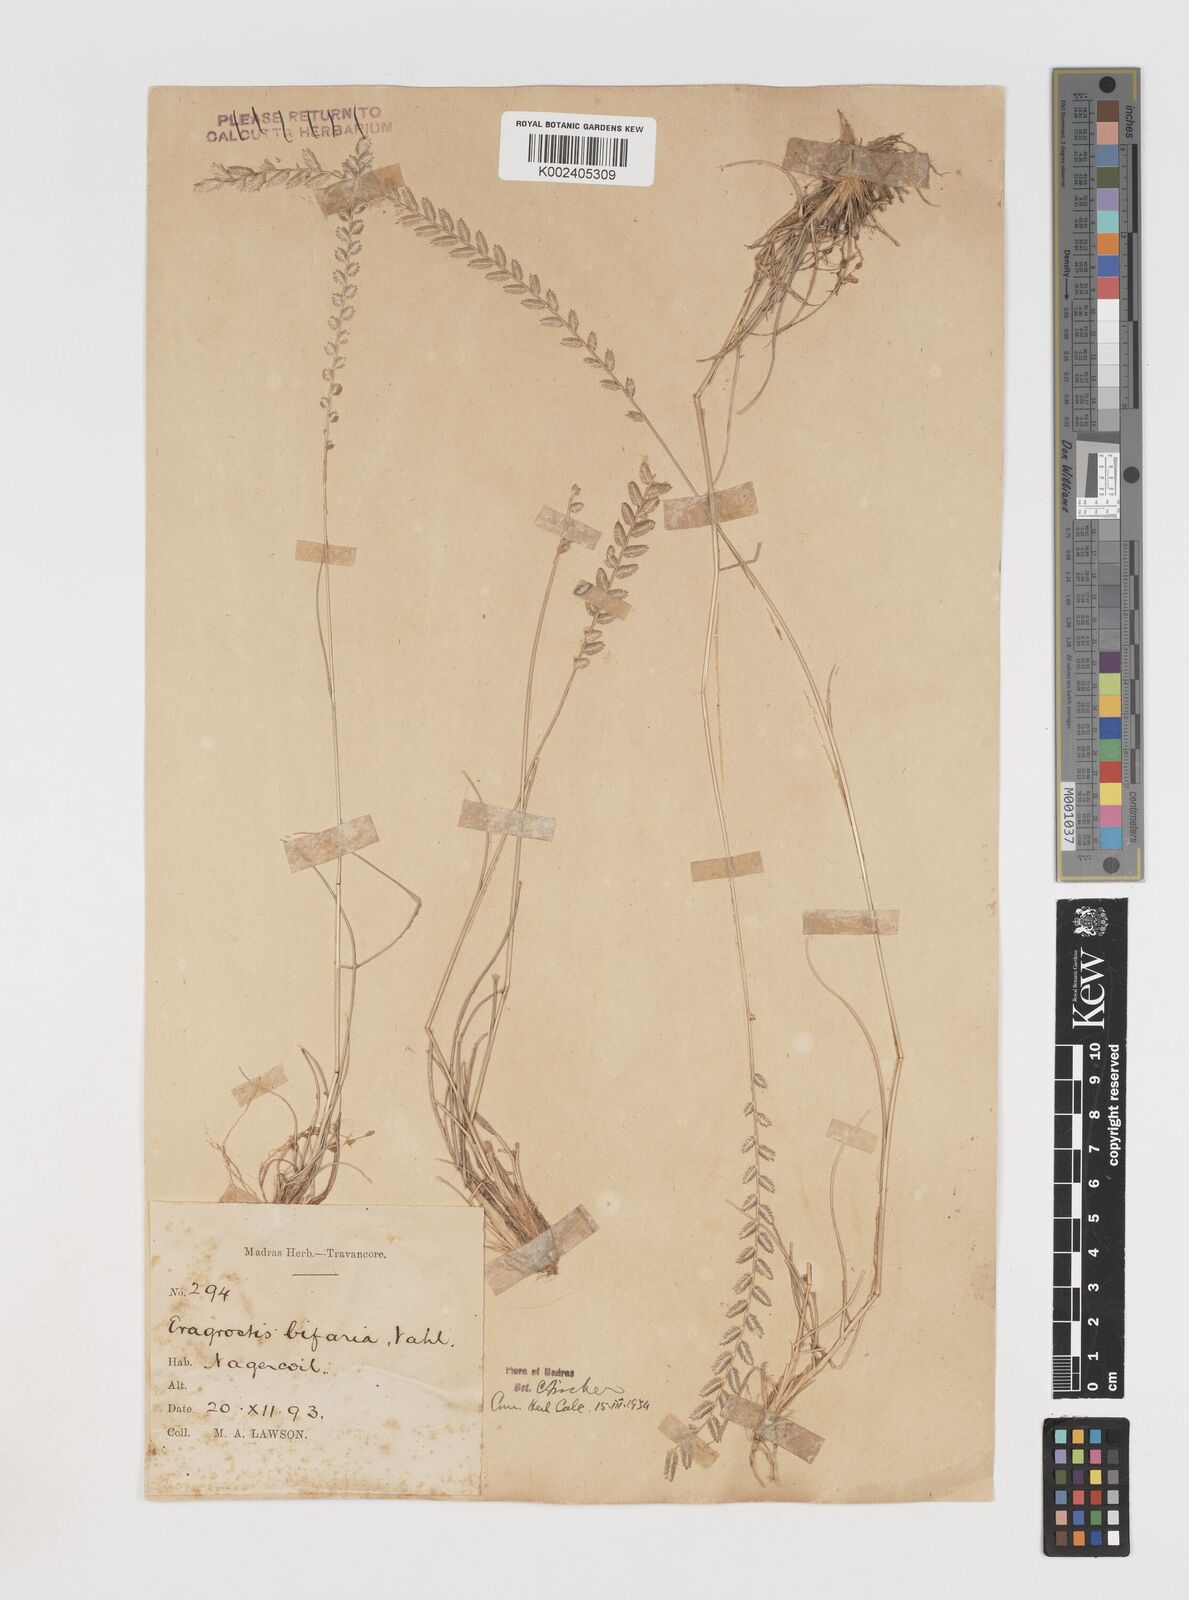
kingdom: Plantae
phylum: Tracheophyta
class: Liliopsida
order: Poales
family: Poaceae
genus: Eragrostiella
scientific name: Eragrostiella bifaria
